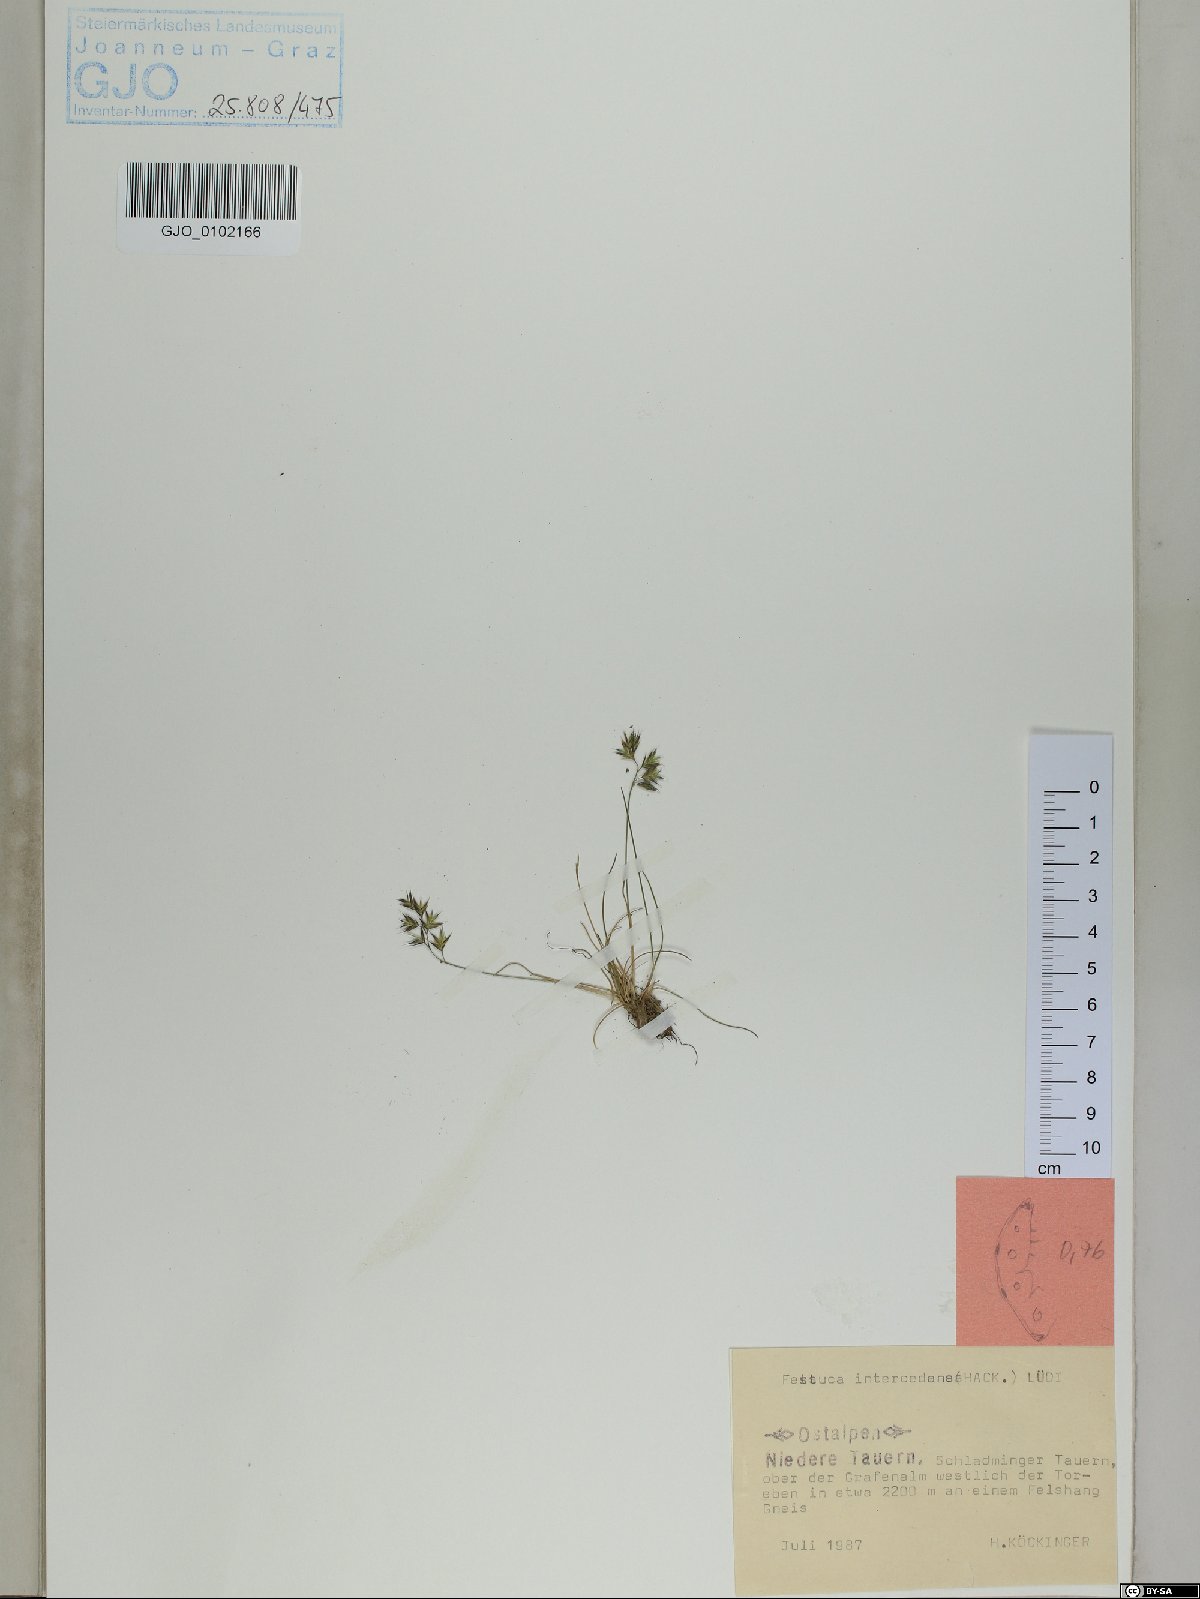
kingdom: Plantae
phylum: Tracheophyta
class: Liliopsida
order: Poales
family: Poaceae
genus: Festuca
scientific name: Festuca intercedens
